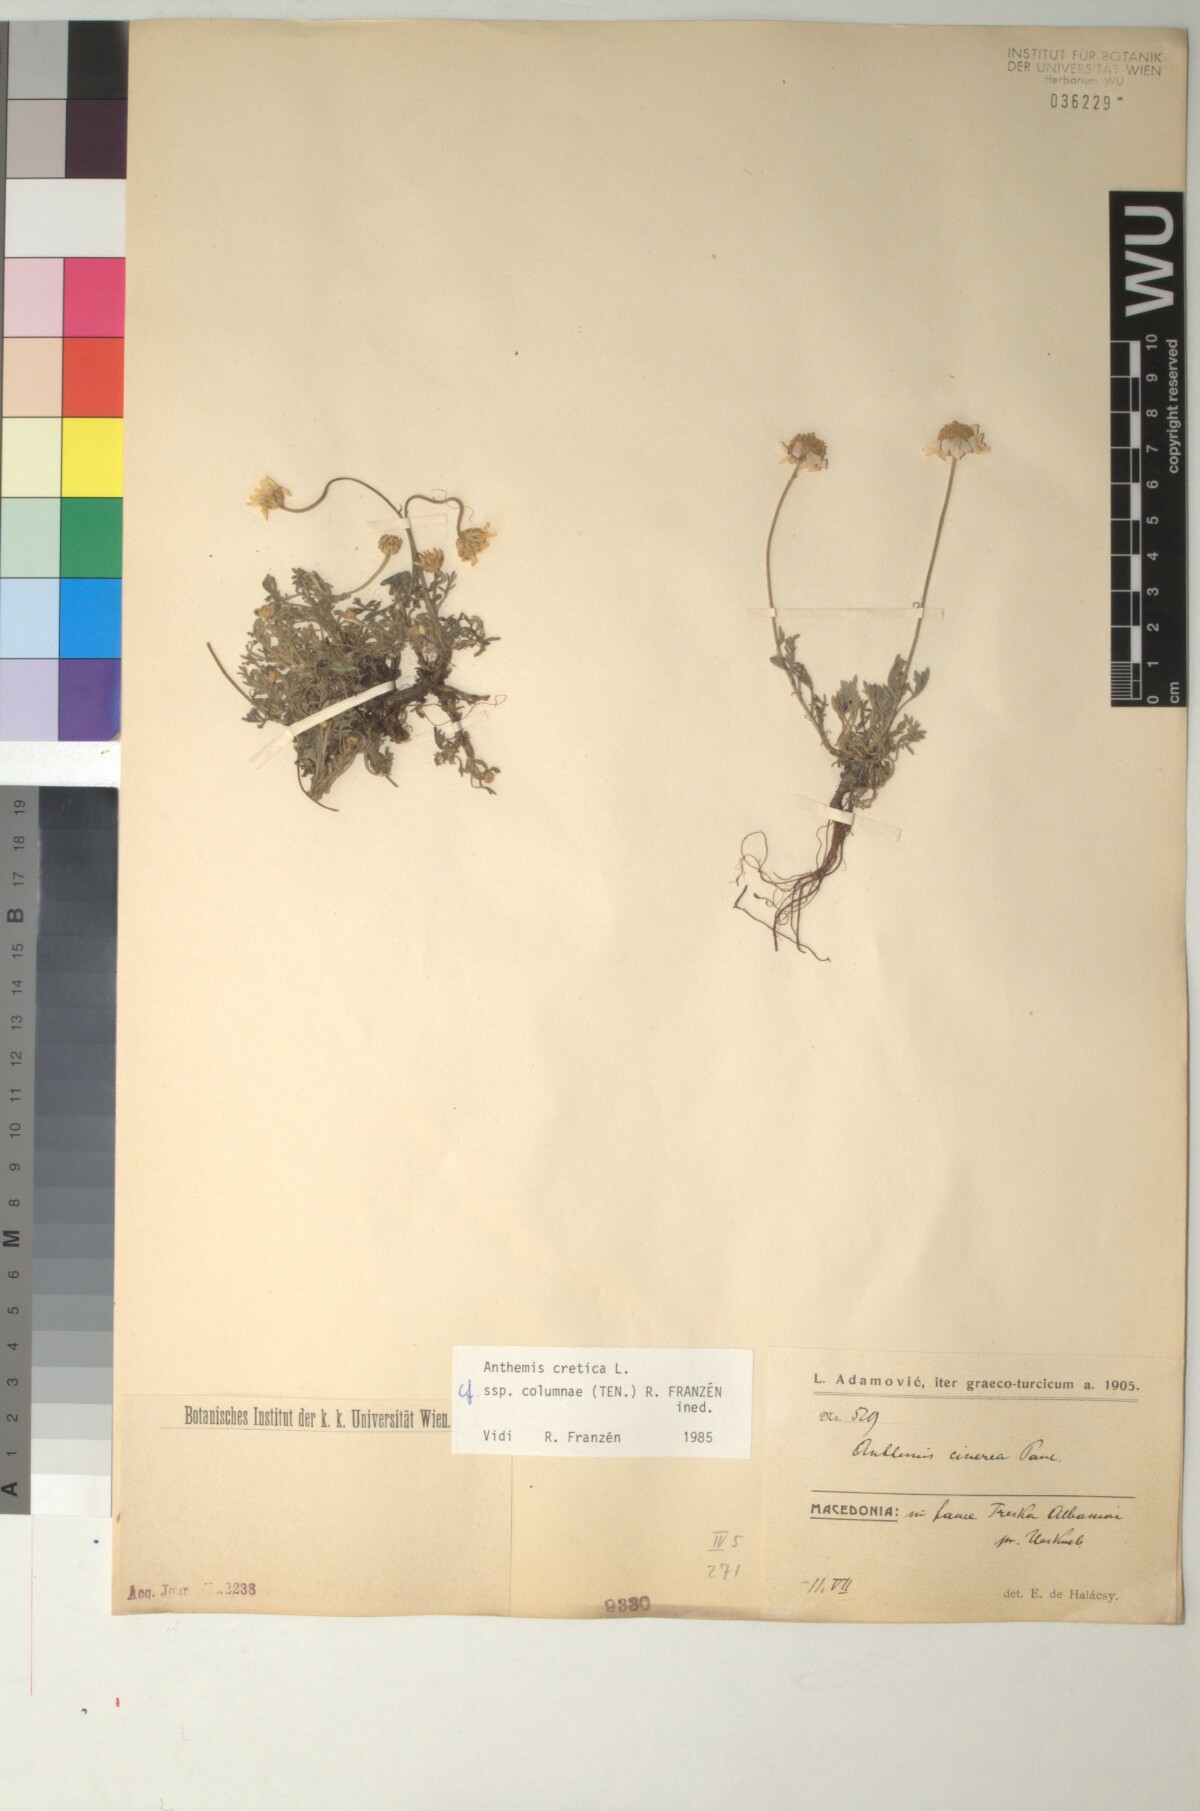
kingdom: Plantae
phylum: Tracheophyta
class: Magnoliopsida
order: Asterales
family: Asteraceae
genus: Anthemis
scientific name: Anthemis cretica
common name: Mountain dog-daisy
